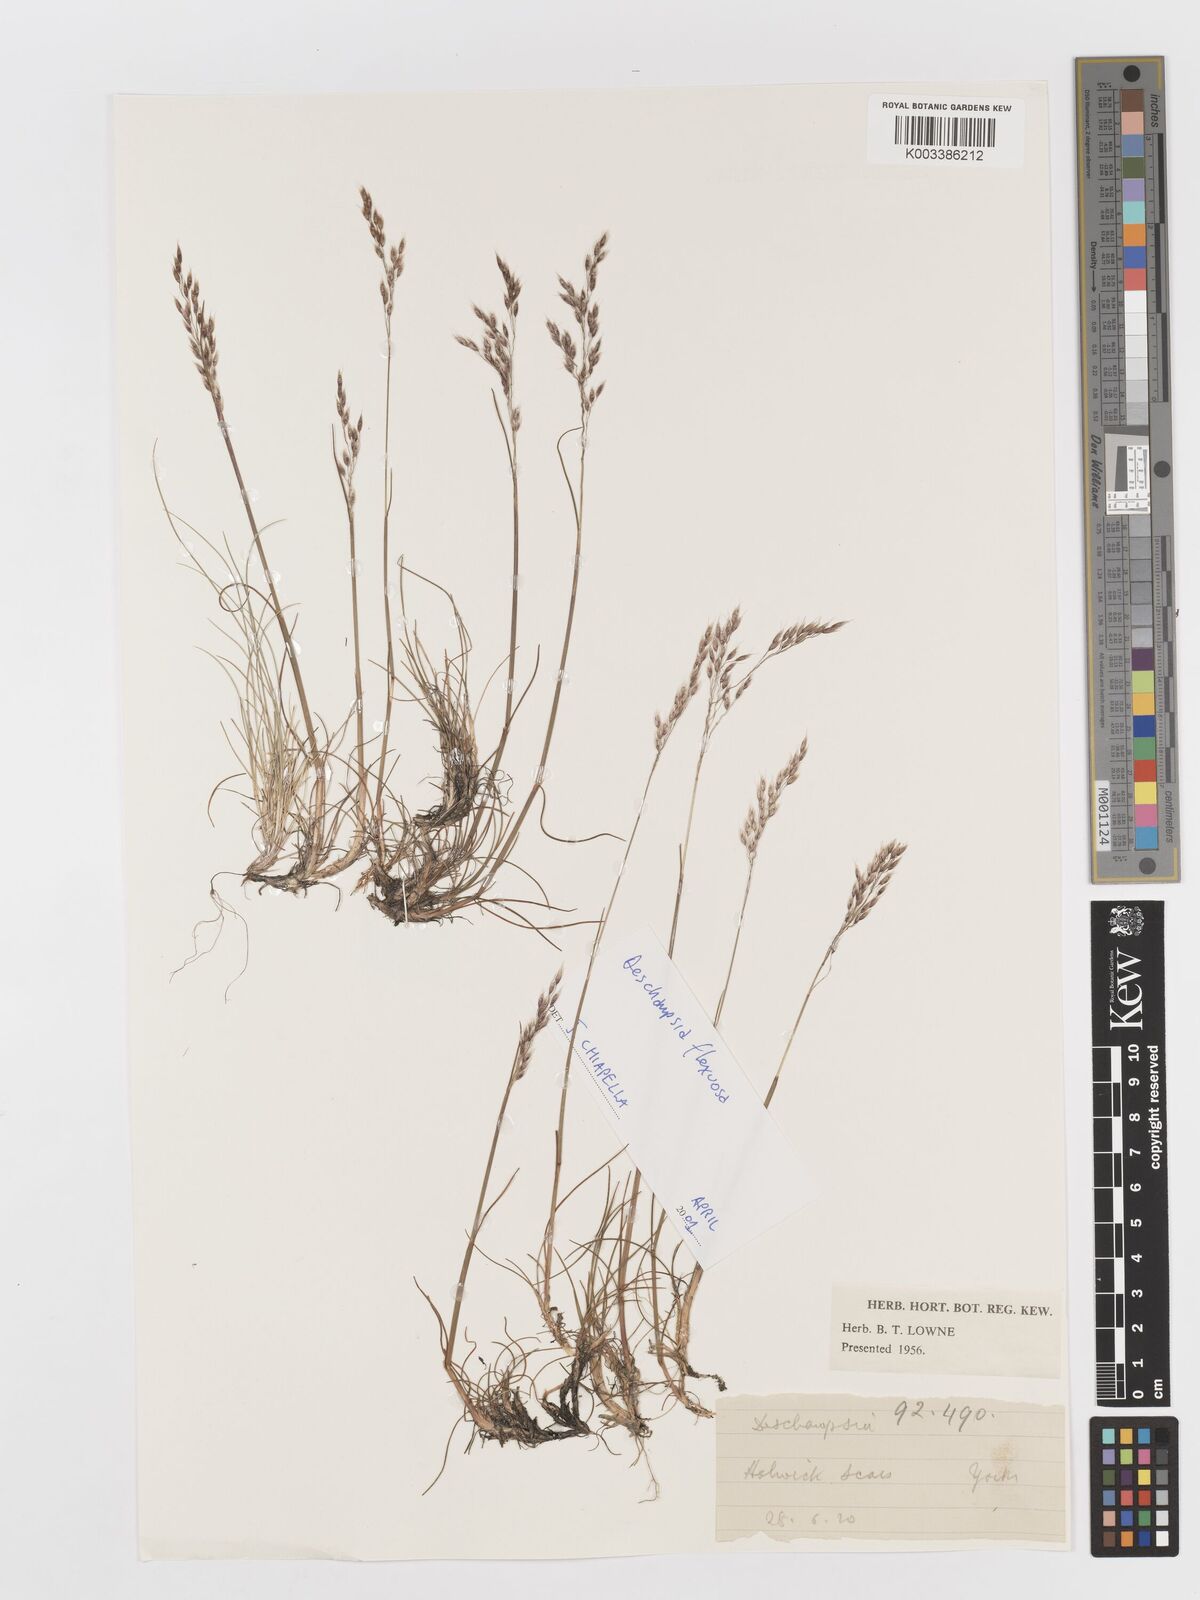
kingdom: Plantae
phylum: Tracheophyta
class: Liliopsida
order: Poales
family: Poaceae
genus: Deschampsia
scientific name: Deschampsia
